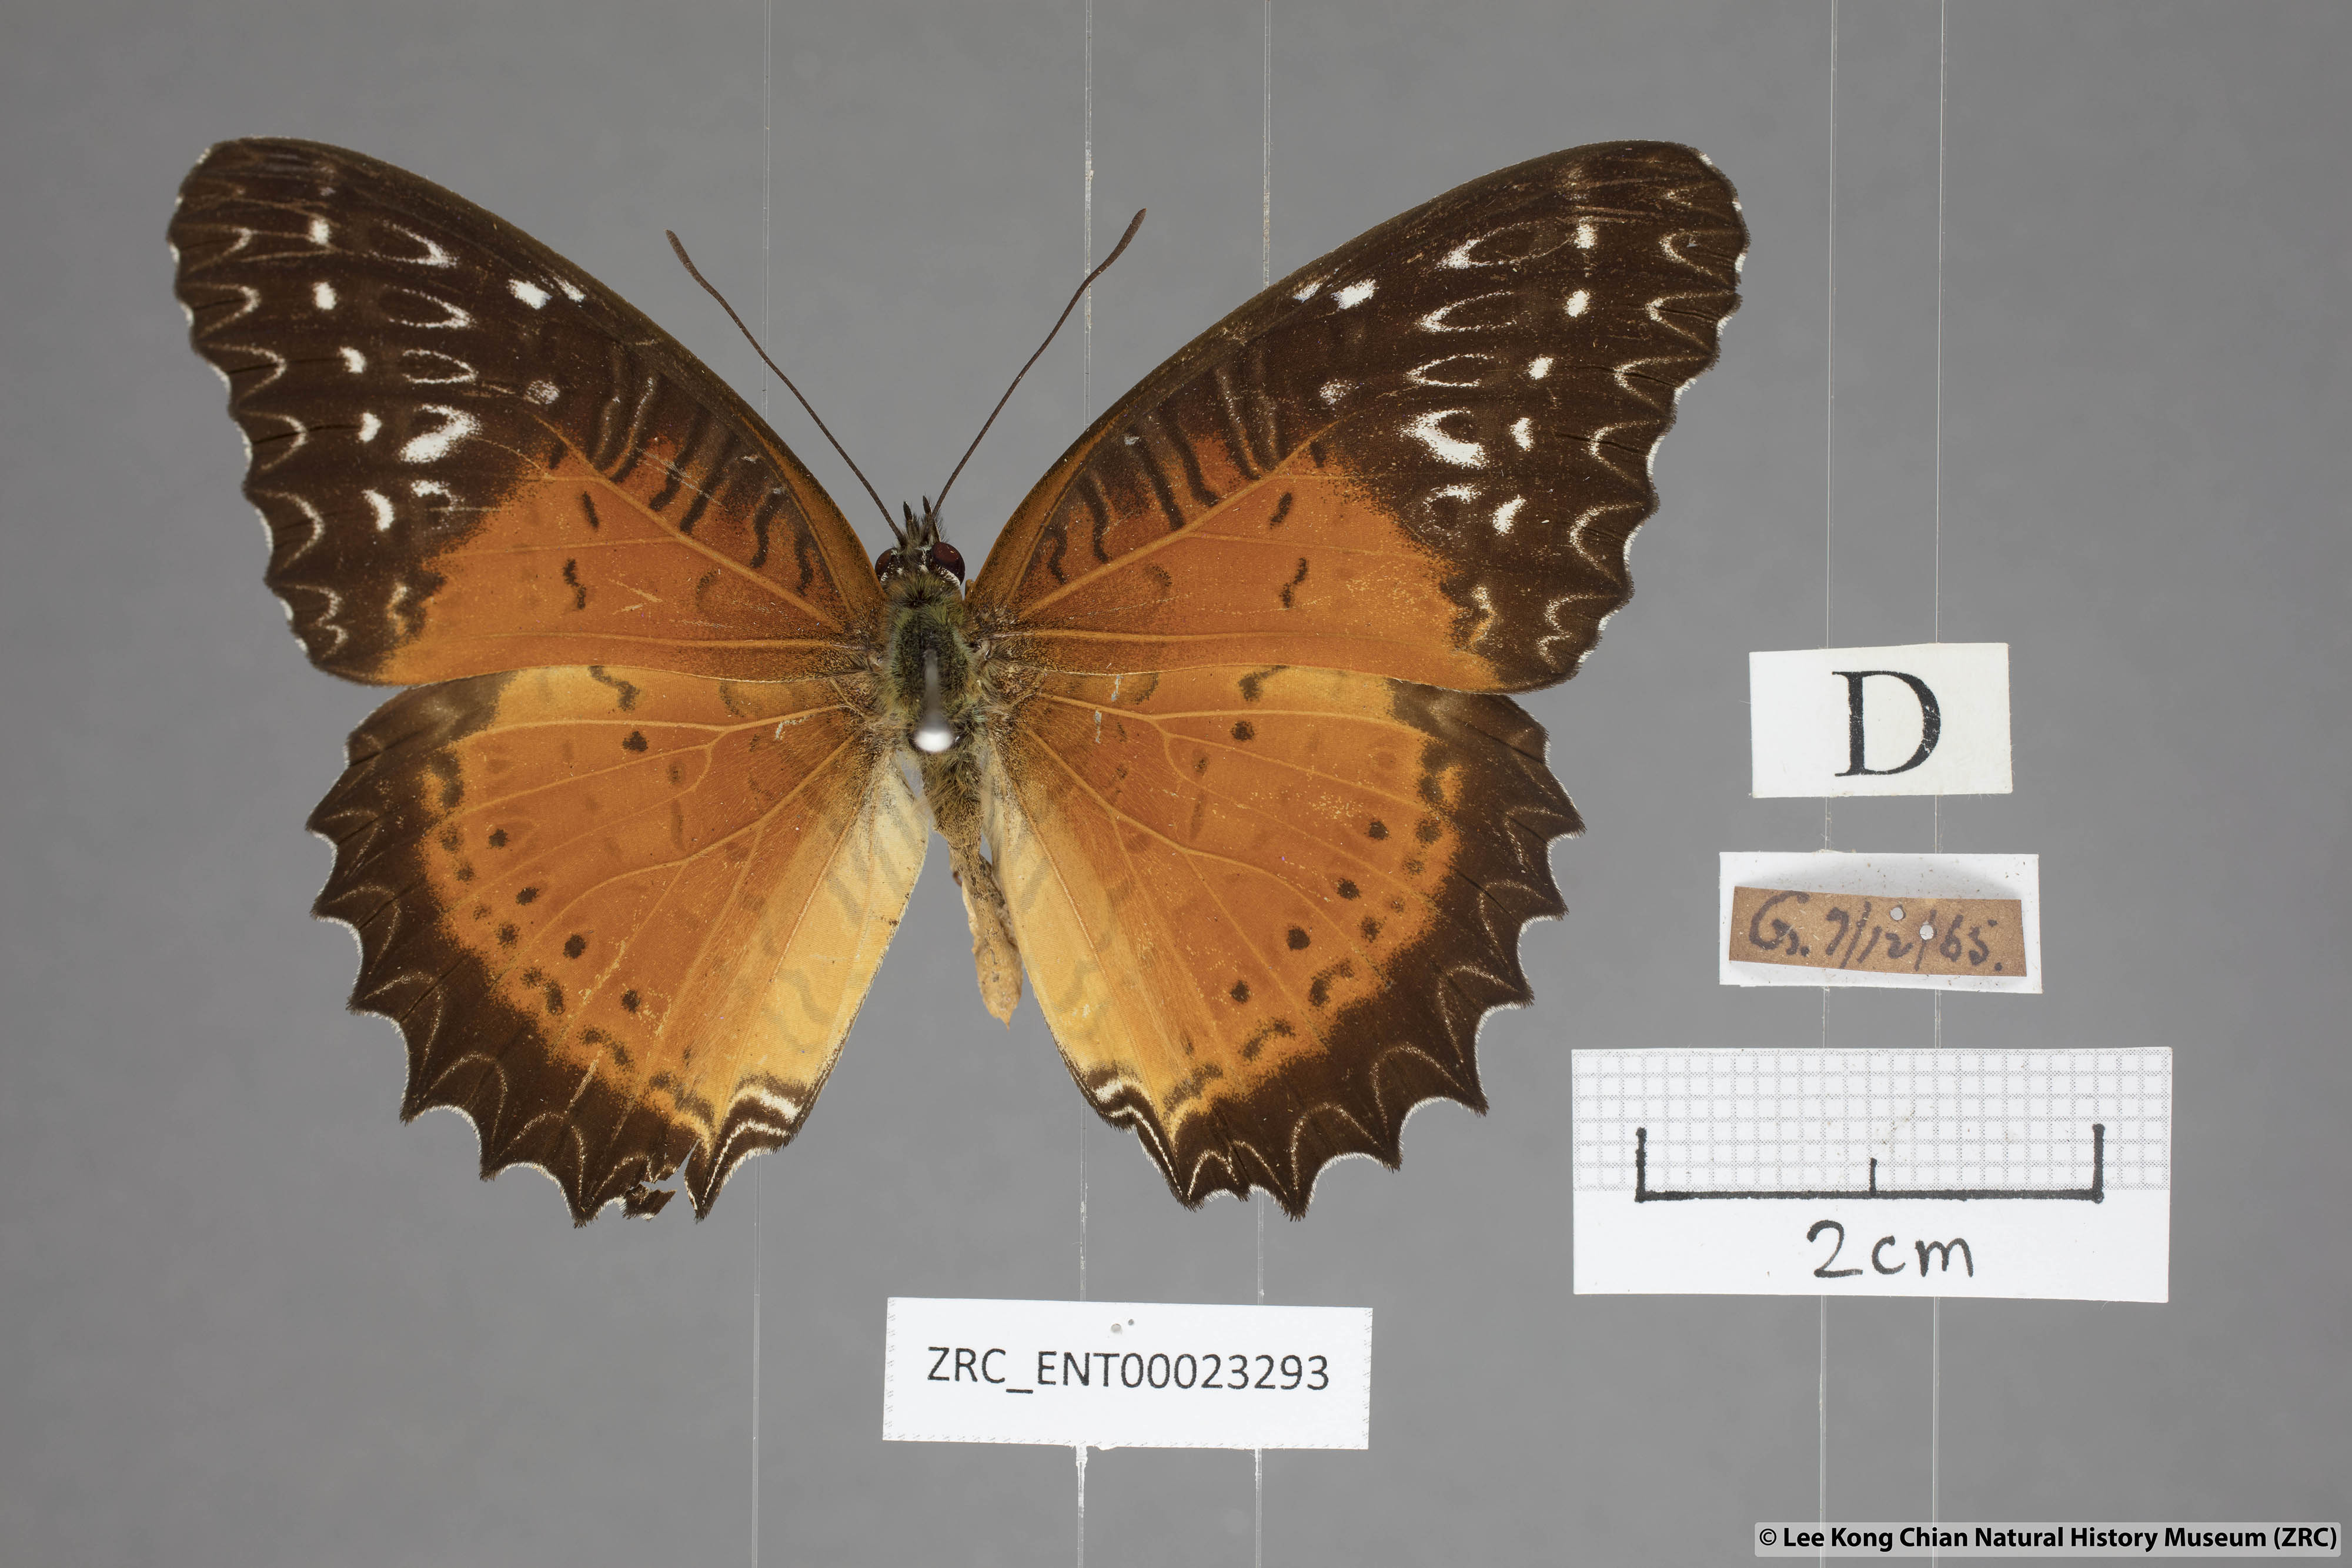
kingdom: Animalia
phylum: Arthropoda
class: Insecta
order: Lepidoptera
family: Nymphalidae
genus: Cethosia
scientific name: Cethosia biblis
